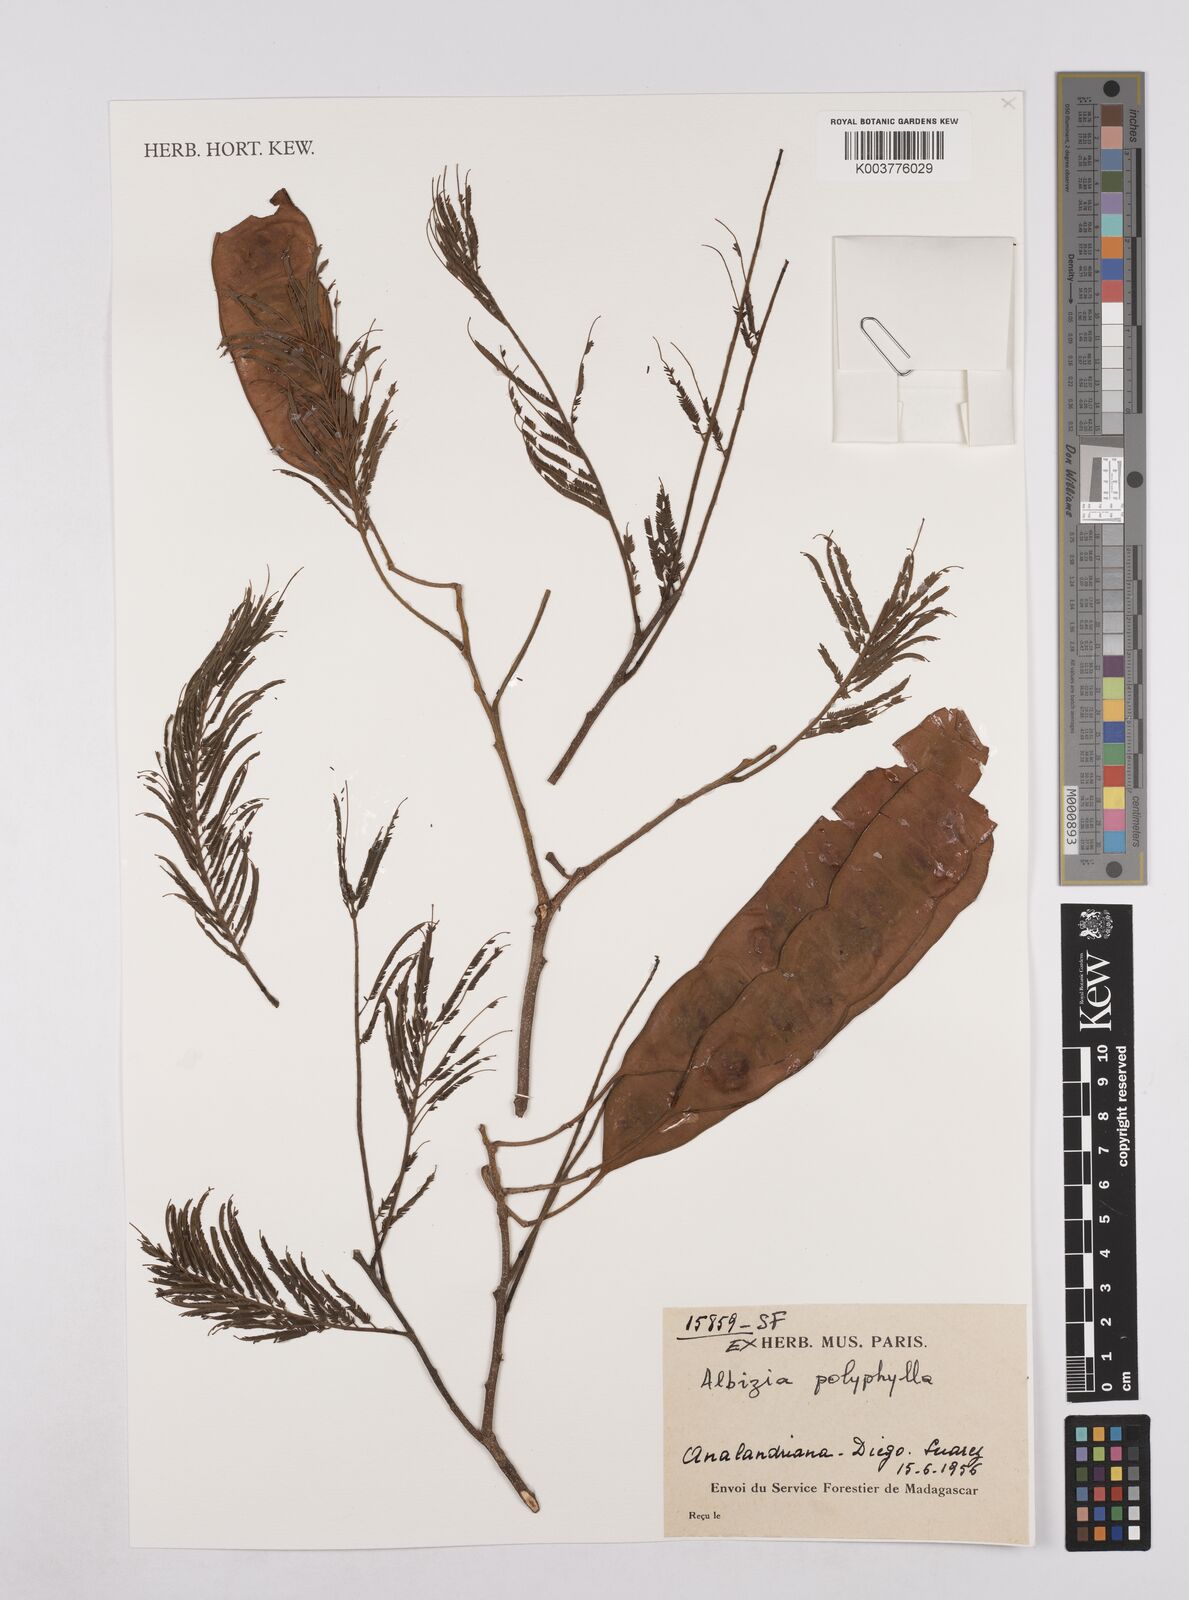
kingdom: Plantae
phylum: Tracheophyta
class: Magnoliopsida
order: Fabales
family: Fabaceae
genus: Albizia
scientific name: Albizia polyphylla
